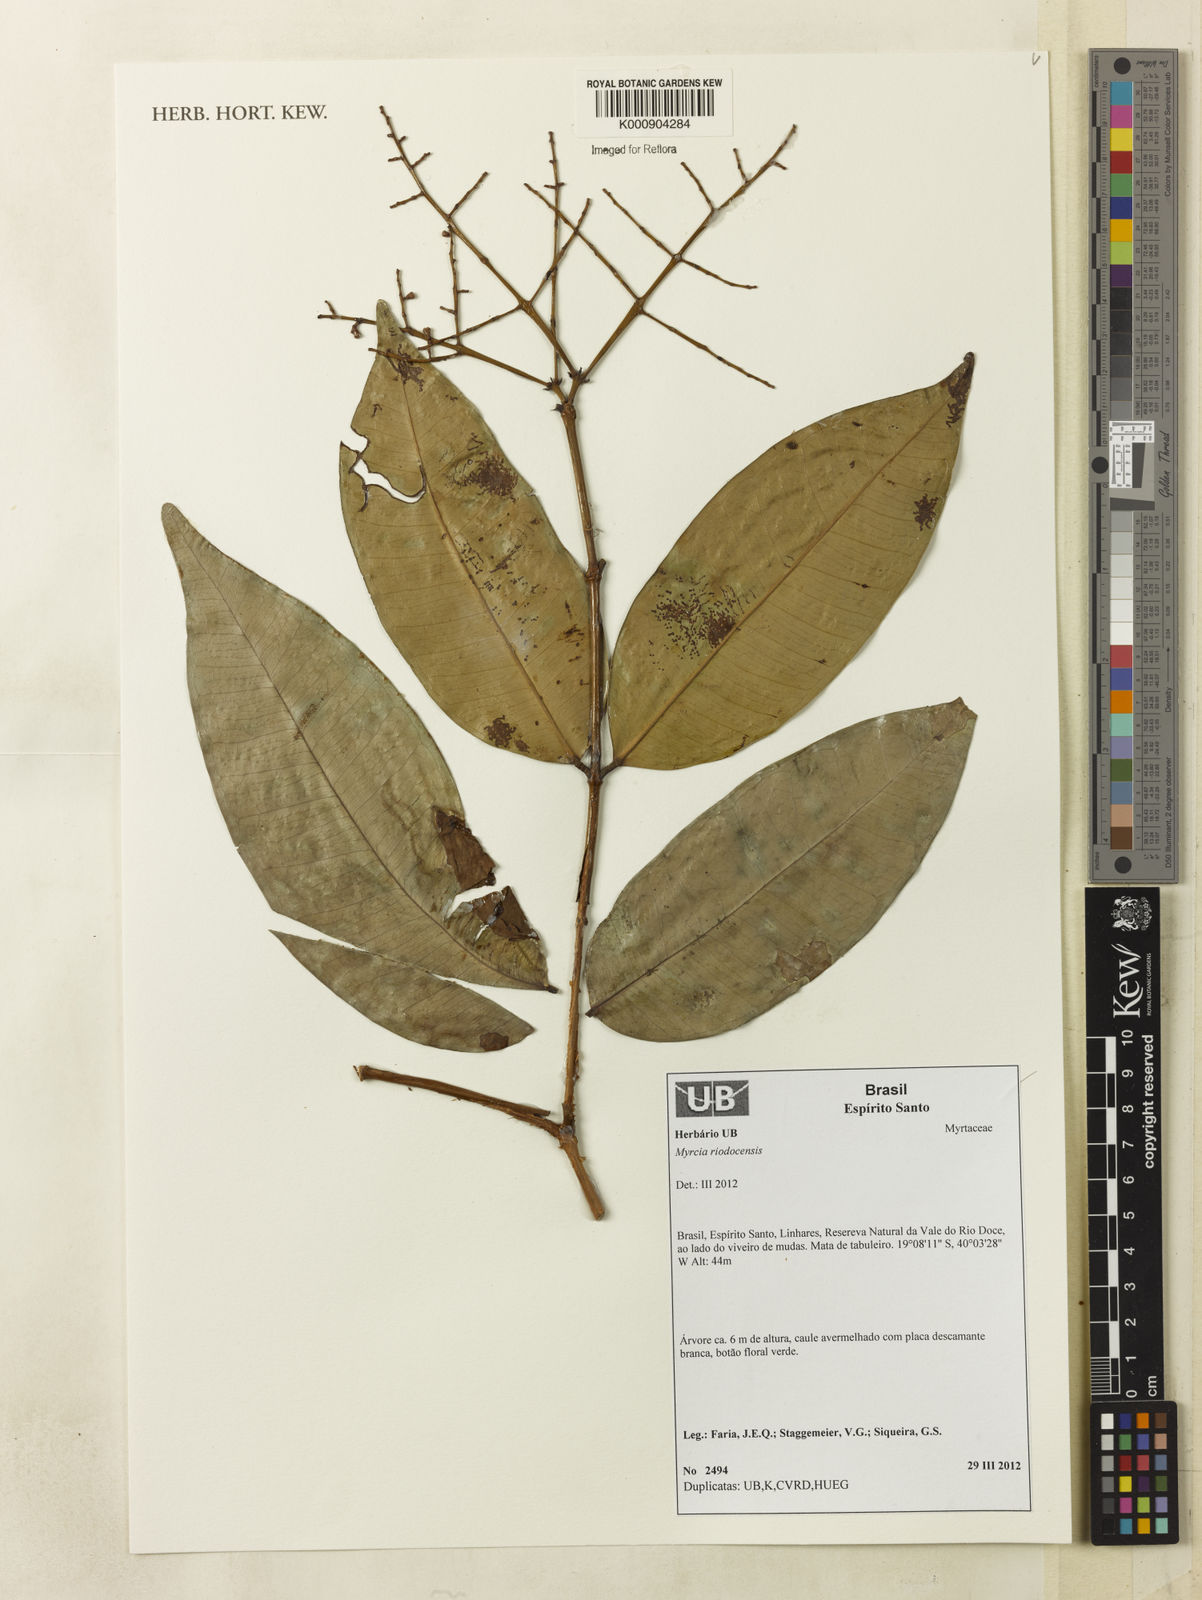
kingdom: Plantae
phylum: Tracheophyta
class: Magnoliopsida
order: Myrtales
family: Myrtaceae
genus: Myrcia
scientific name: Myrcia riodocensis
